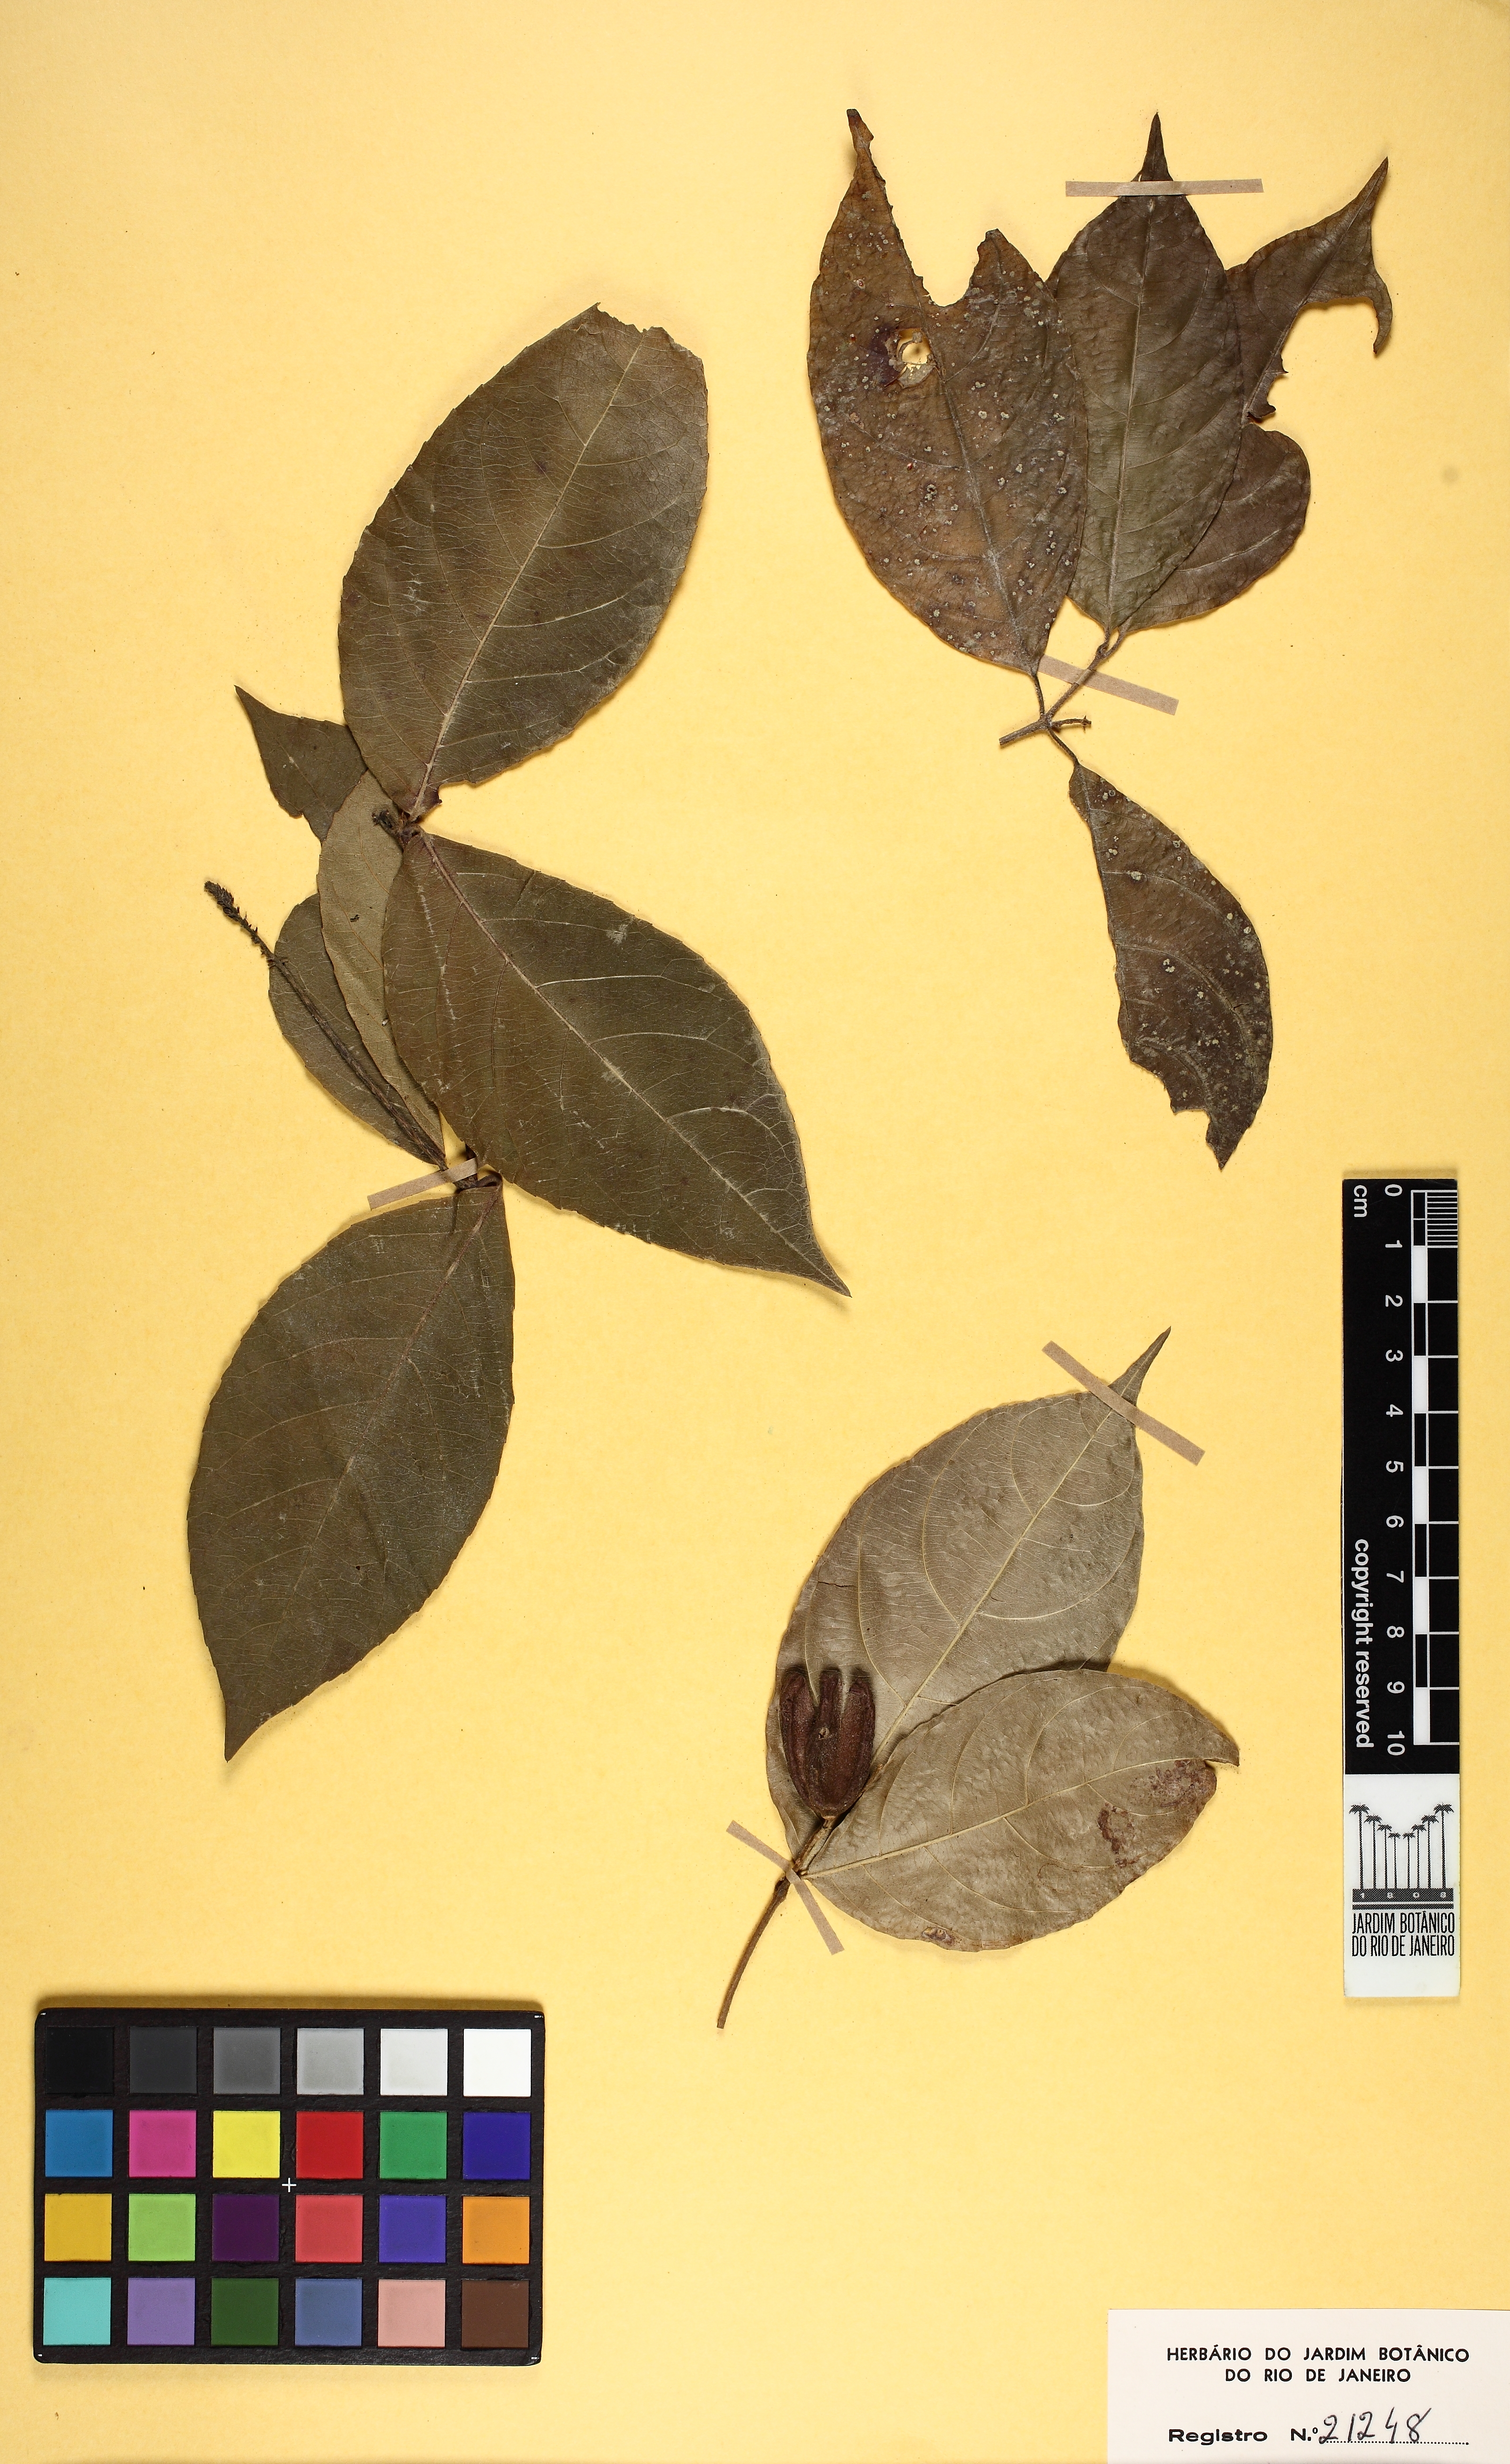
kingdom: Plantae
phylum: Tracheophyta
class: Magnoliopsida
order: Malpighiales
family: Violaceae
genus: Rinorea
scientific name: Rinorea pubiflora
